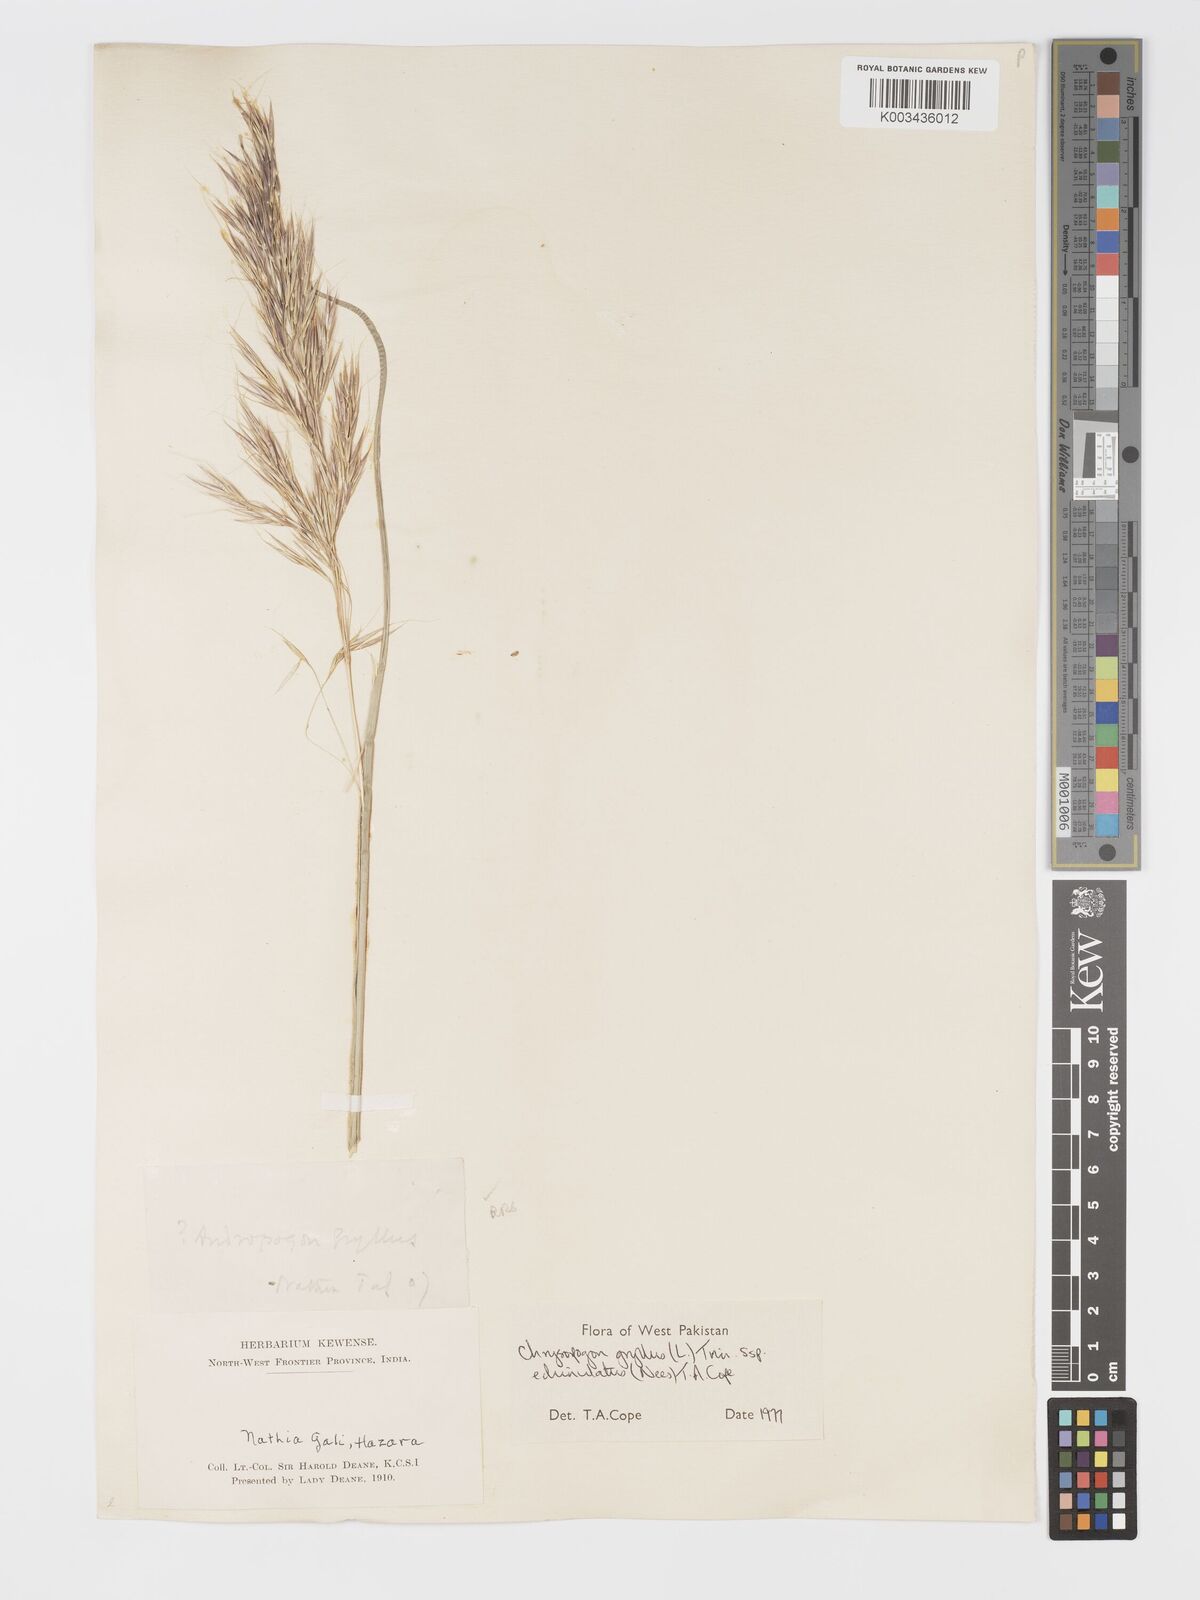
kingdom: Plantae
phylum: Tracheophyta
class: Liliopsida
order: Poales
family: Poaceae
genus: Chrysopogon
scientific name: Chrysopogon gryllus
